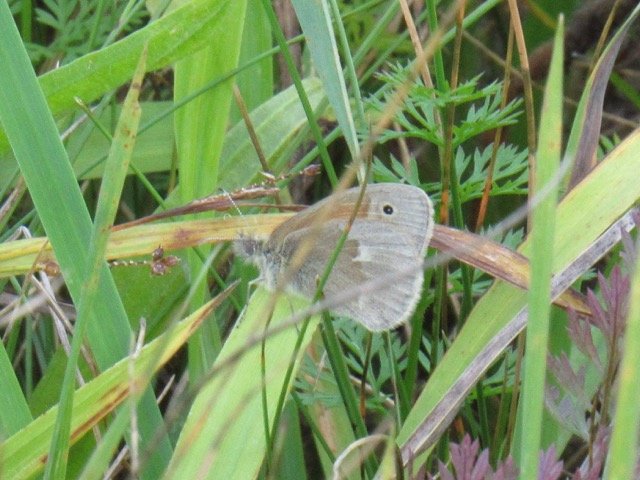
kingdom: Animalia
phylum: Arthropoda
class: Insecta
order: Lepidoptera
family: Nymphalidae
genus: Coenonympha
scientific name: Coenonympha tullia
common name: Large Heath
